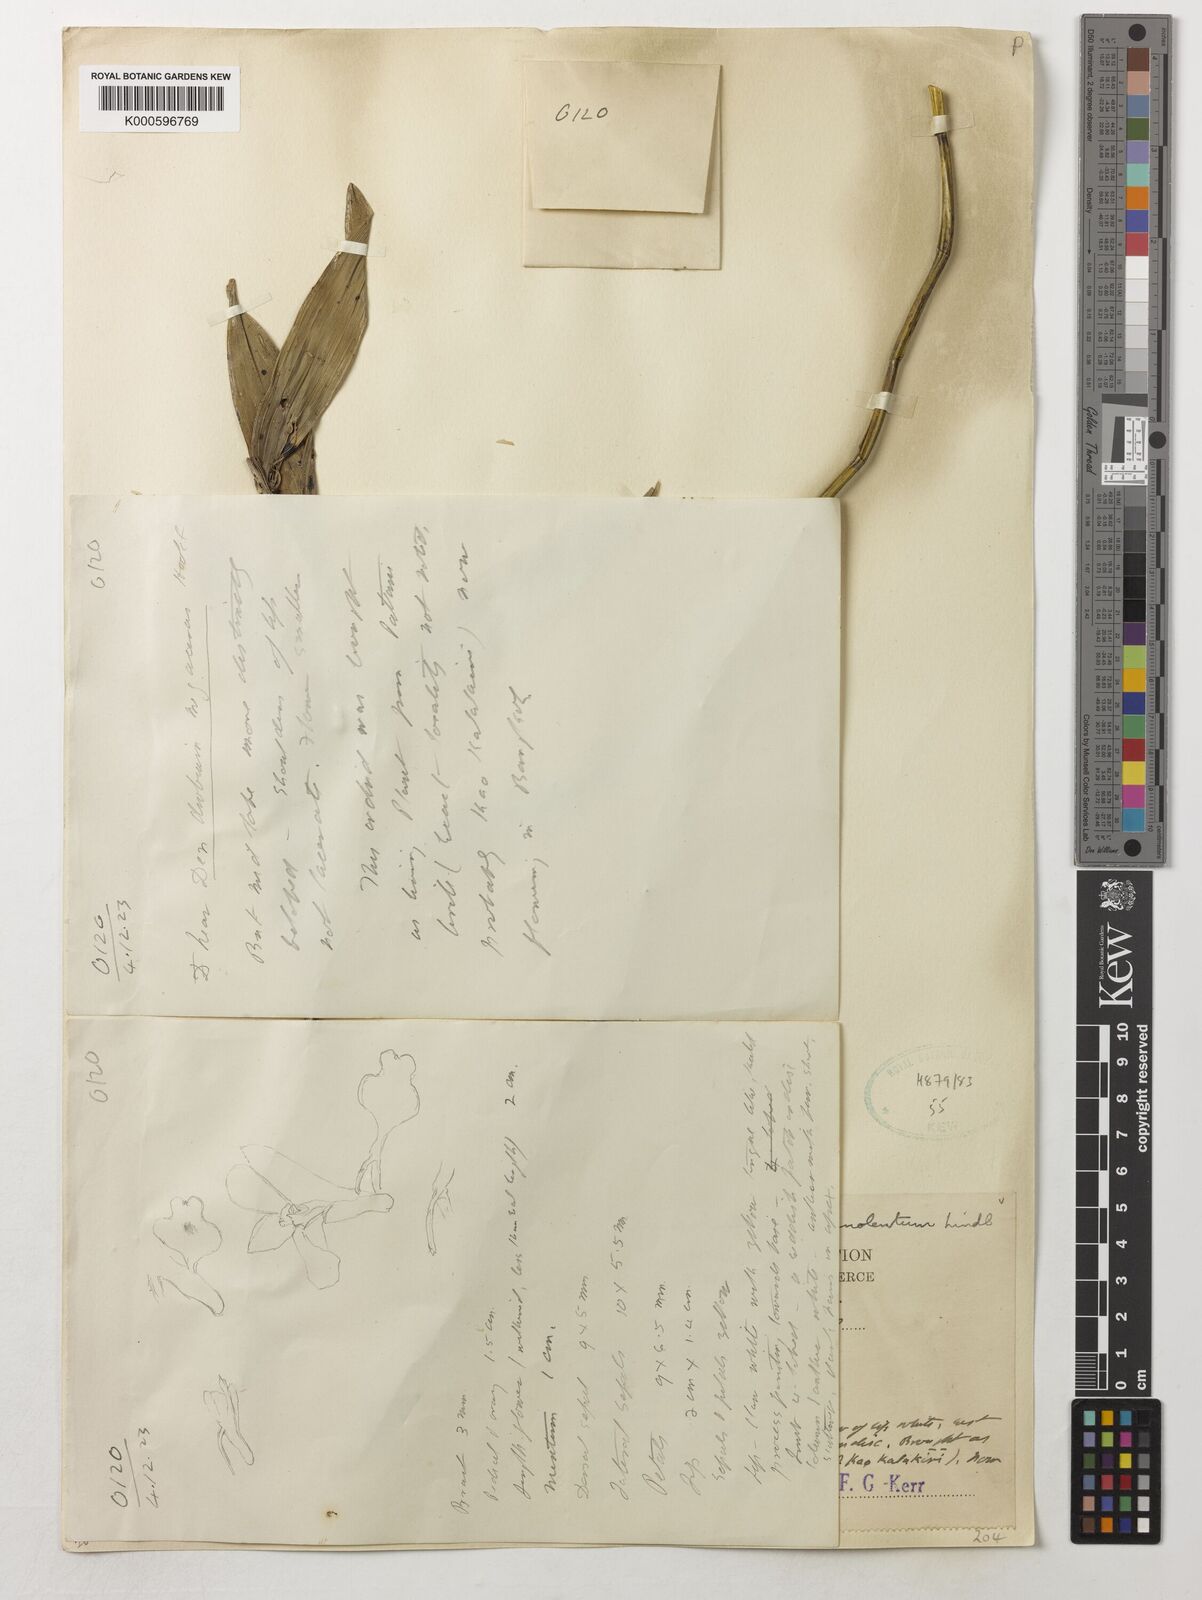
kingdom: Plantae
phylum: Tracheophyta
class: Liliopsida
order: Asparagales
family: Orchidaceae
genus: Dendrobium
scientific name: Dendrobium sanguinolentum
